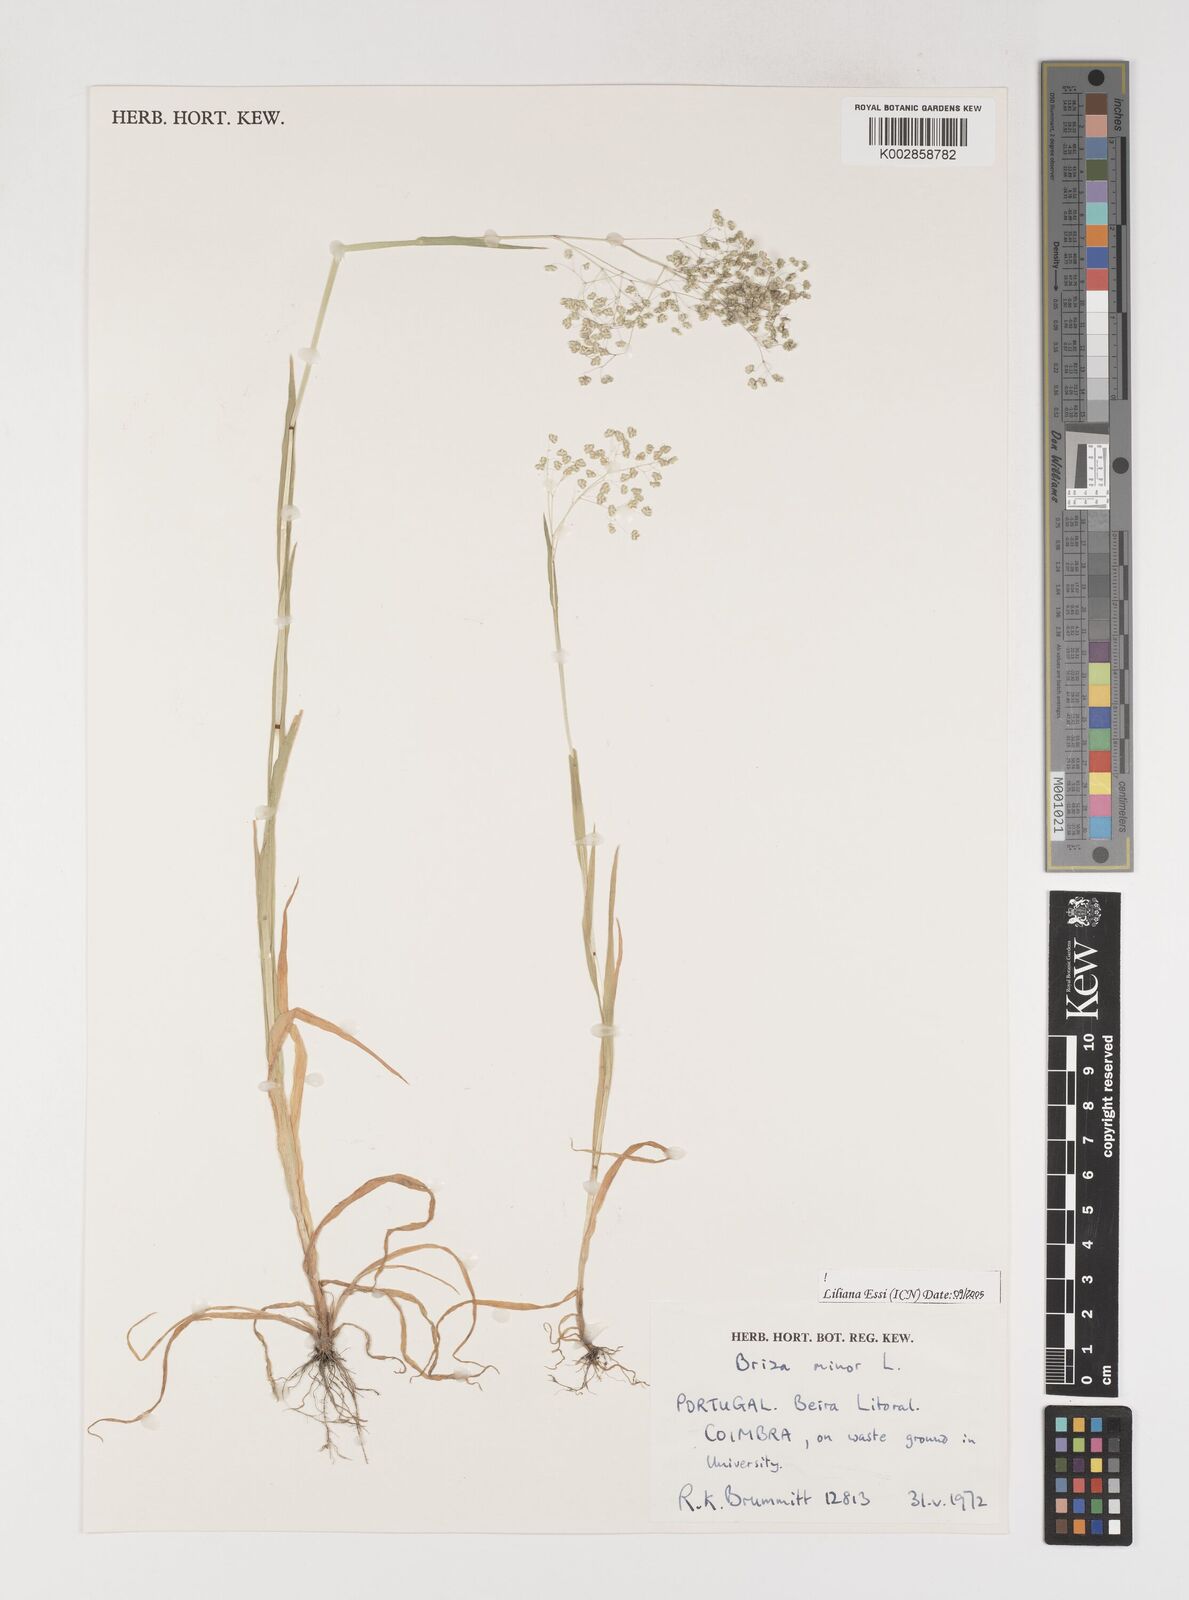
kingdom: Plantae
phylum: Tracheophyta
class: Liliopsida
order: Poales
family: Poaceae
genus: Briza
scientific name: Briza minor
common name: Lesser quaking-grass
